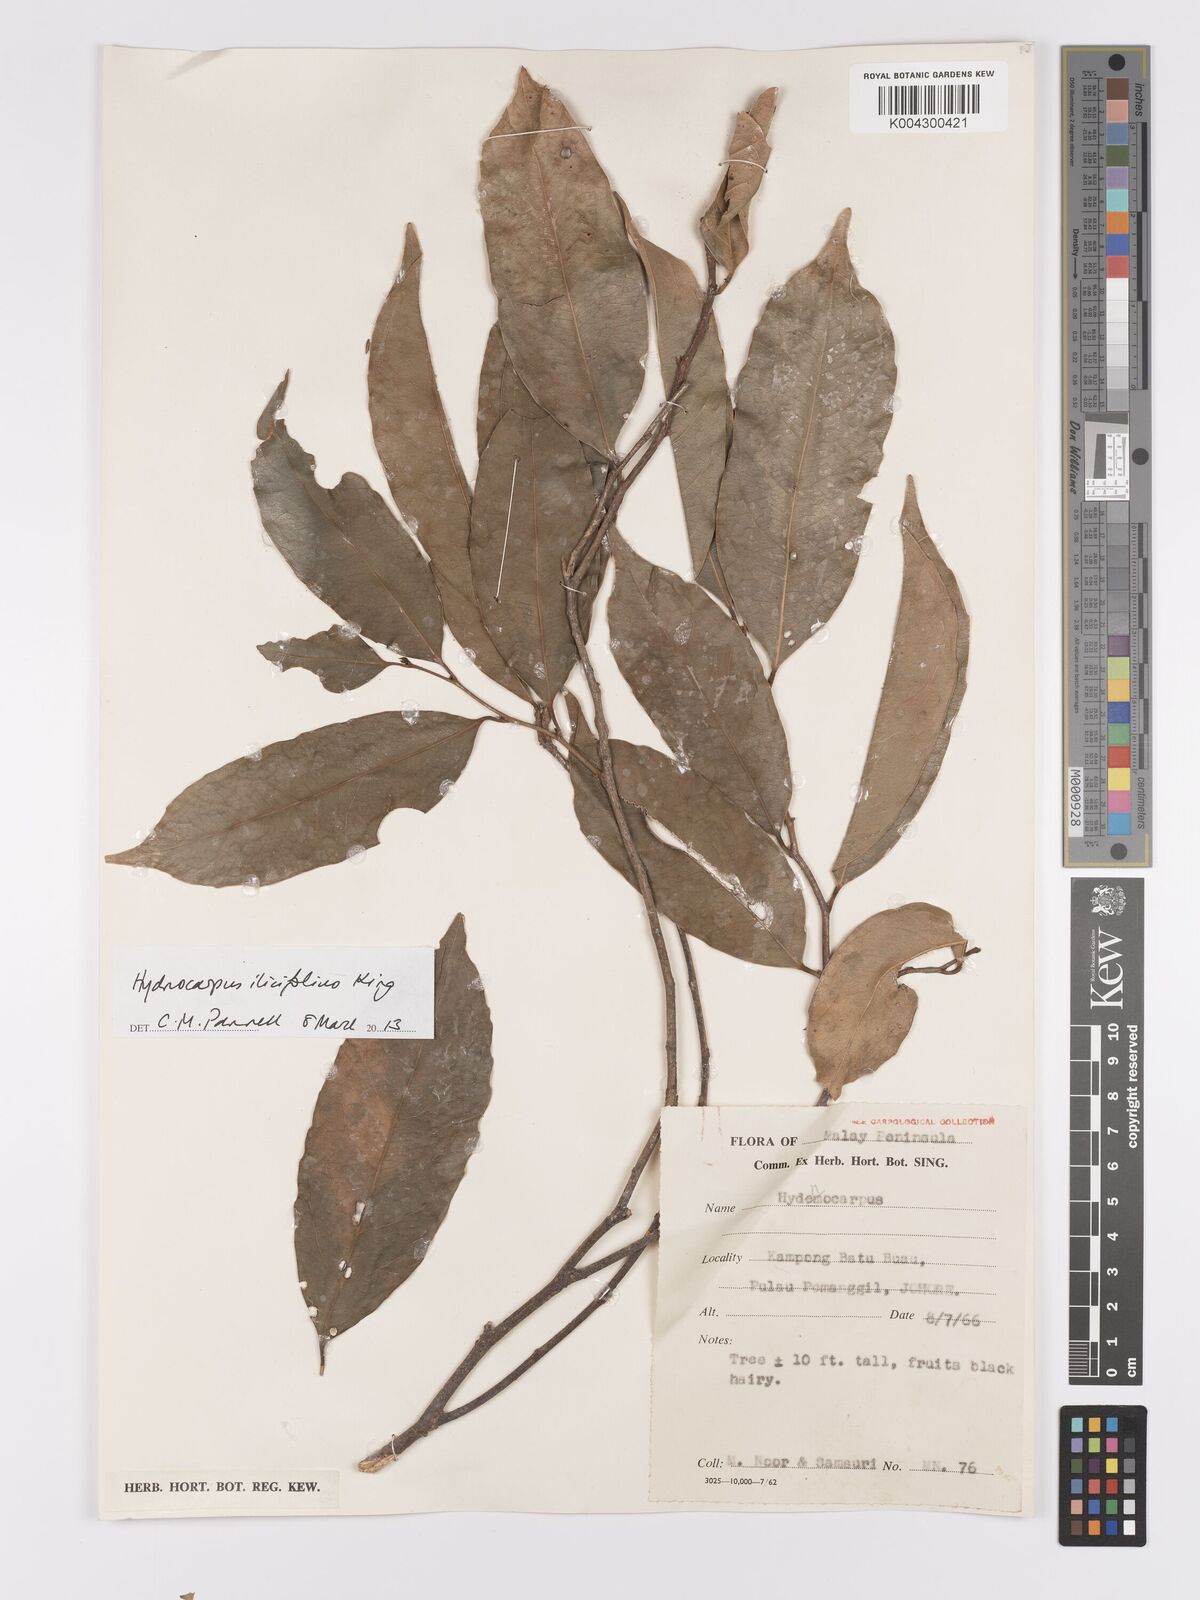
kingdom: Plantae
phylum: Tracheophyta
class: Magnoliopsida
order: Malpighiales
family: Achariaceae
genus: Hydnocarpus
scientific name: Hydnocarpus ilicifolius
